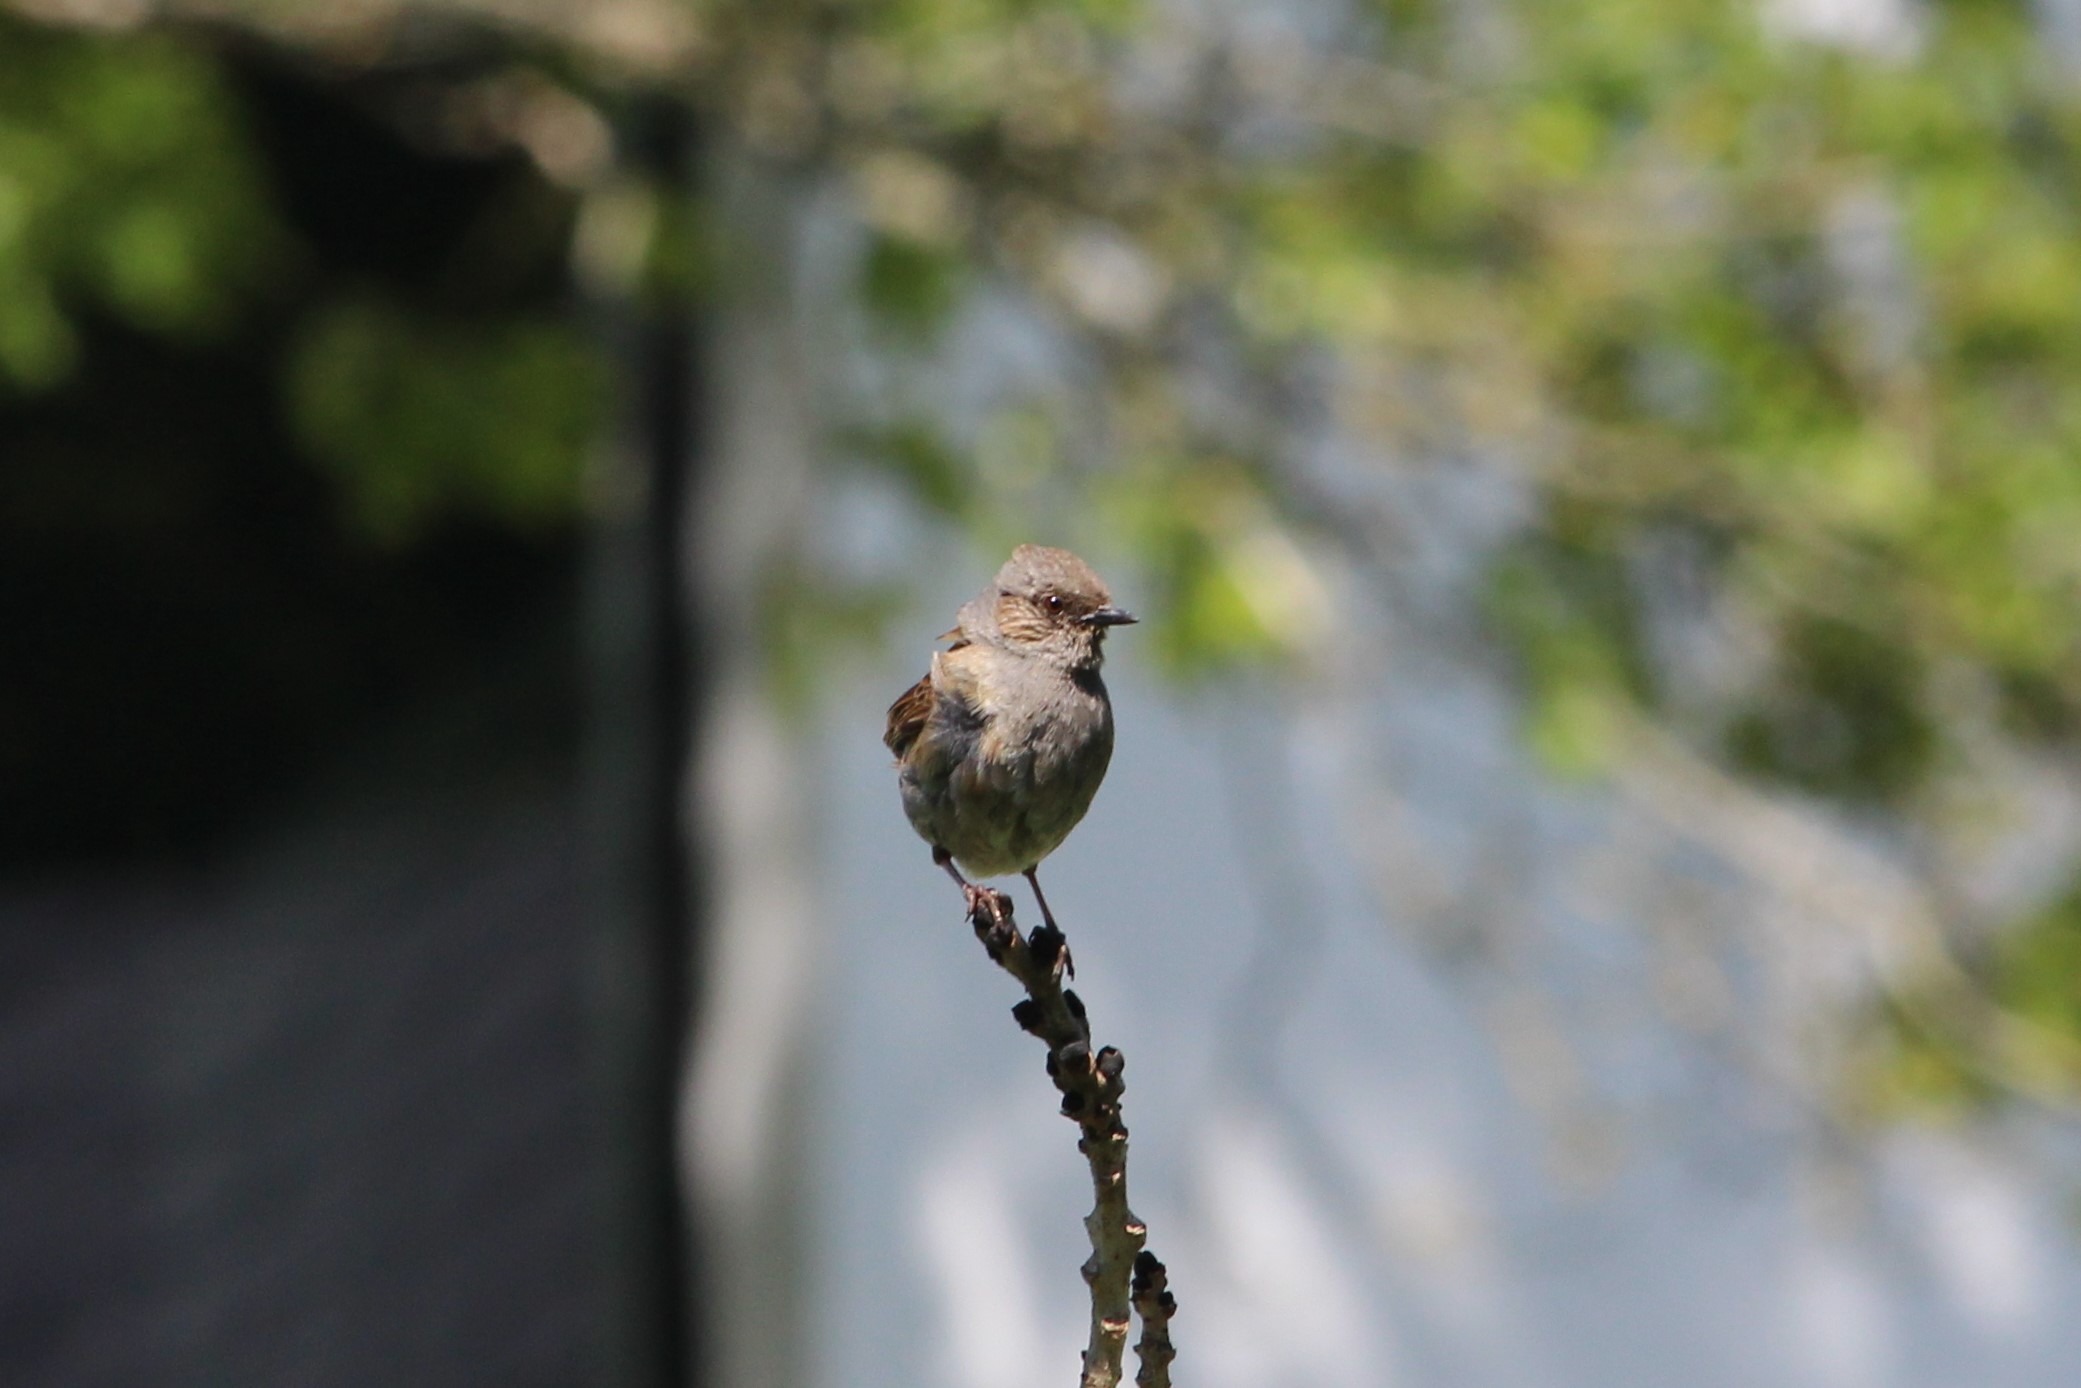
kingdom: Animalia
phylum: Chordata
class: Aves
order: Passeriformes
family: Prunellidae
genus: Prunella
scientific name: Prunella modularis
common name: Jernspurv
